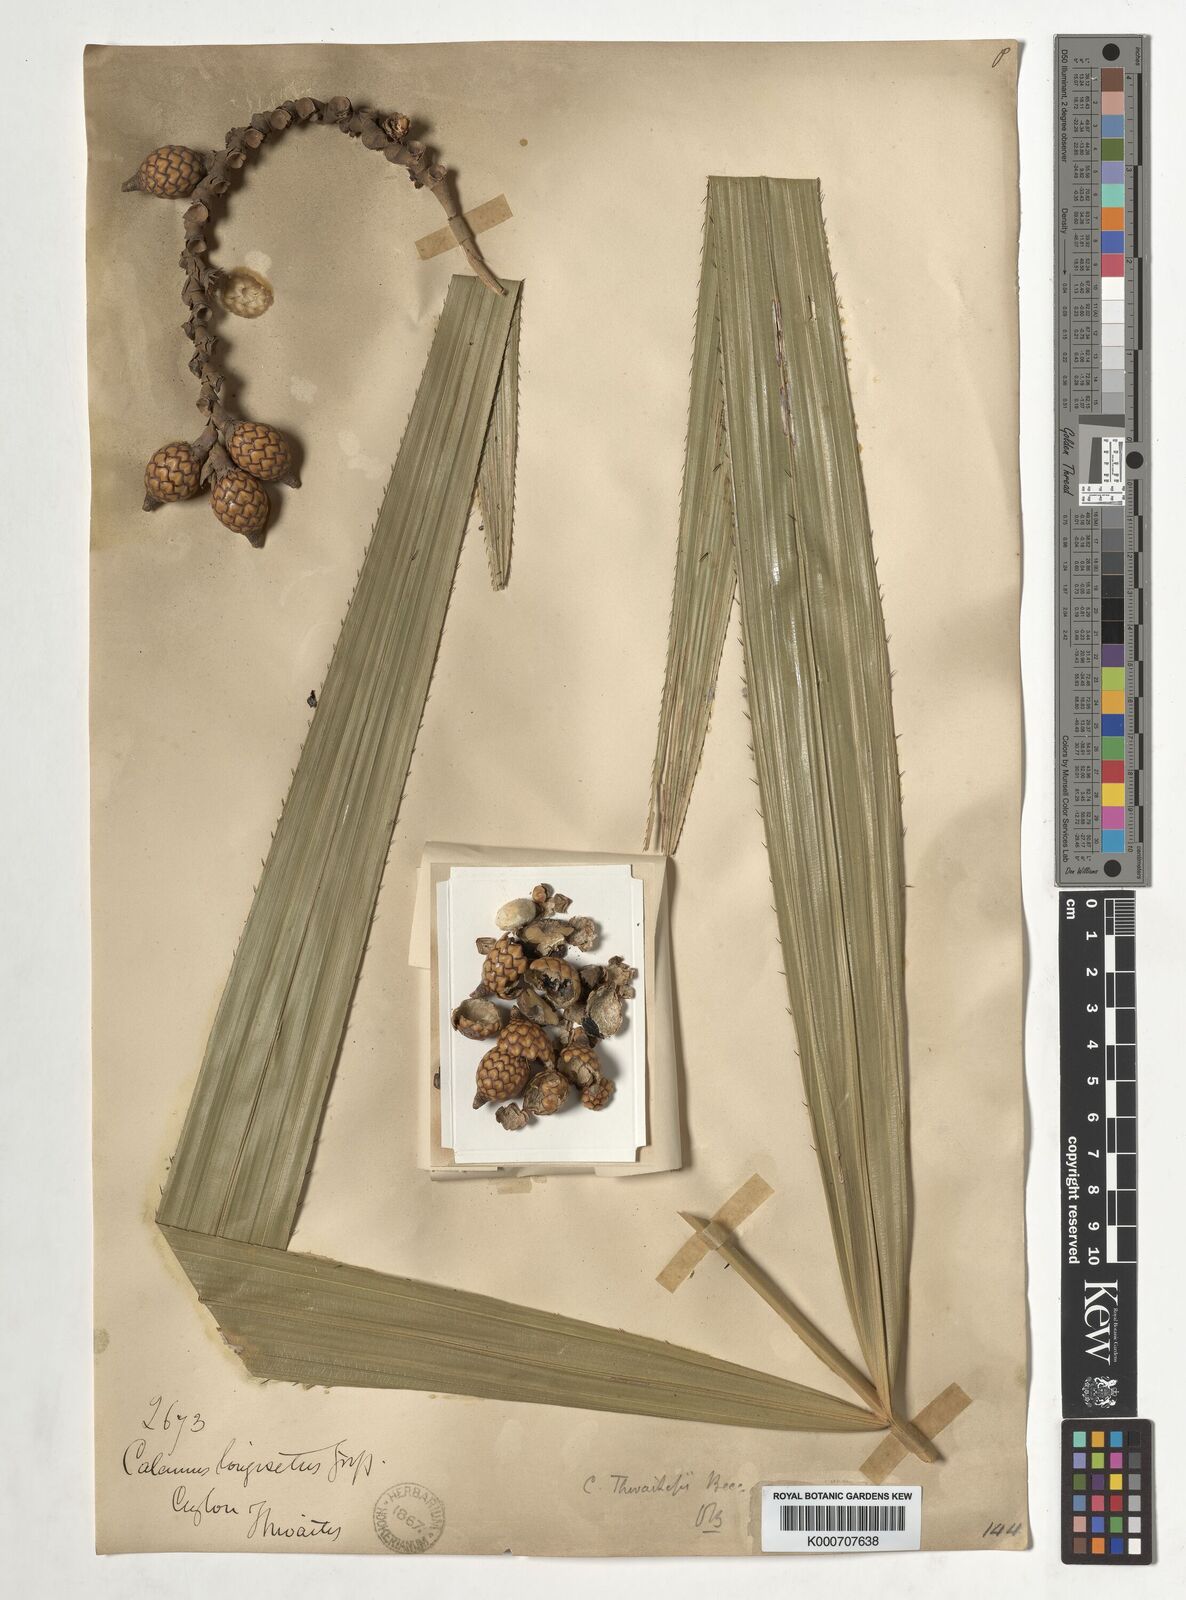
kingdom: Plantae
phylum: Tracheophyta
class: Liliopsida
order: Arecales
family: Arecaceae
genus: Calamus
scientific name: Calamus thwaitesii
